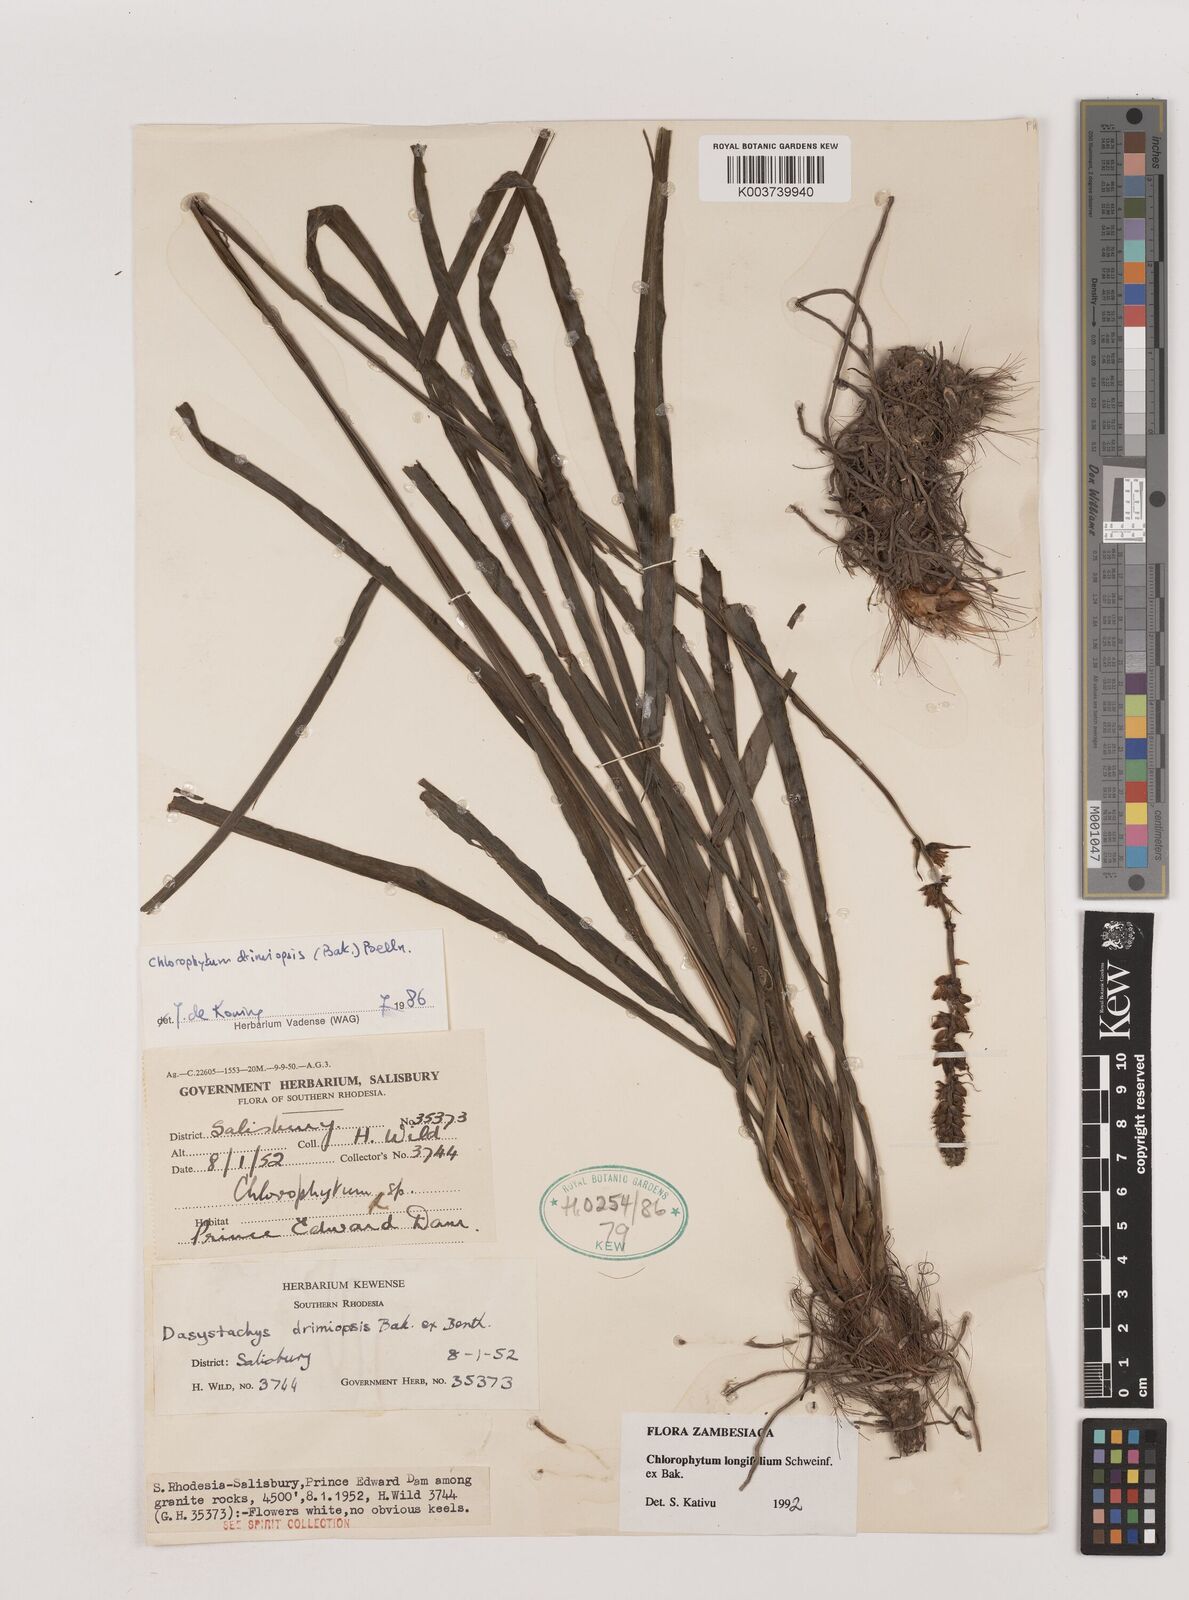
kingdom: Plantae
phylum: Tracheophyta
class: Liliopsida
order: Asparagales
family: Asparagaceae
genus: Chlorophytum
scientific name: Chlorophytum longifolium
